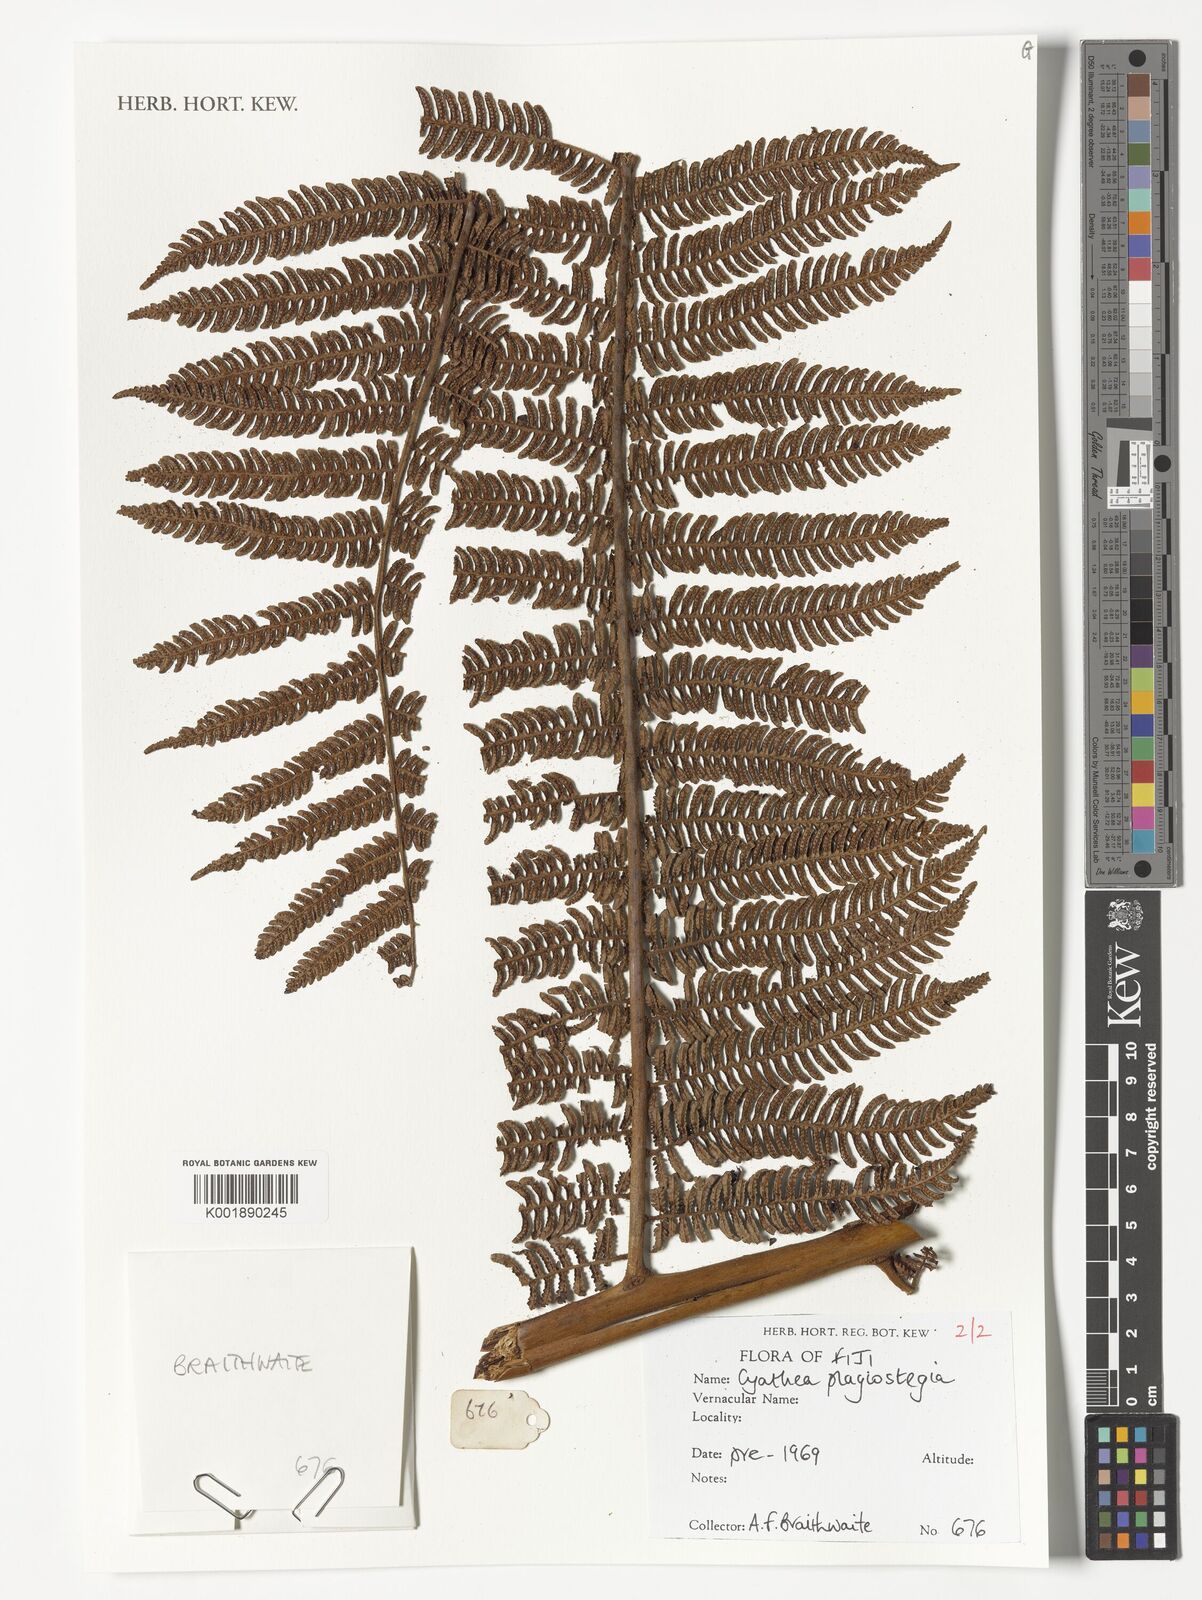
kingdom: Plantae
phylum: Tracheophyta
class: Polypodiopsida
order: Cyatheales
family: Cyatheaceae
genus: Sphaeropteris
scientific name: Sphaeropteris samoensis
